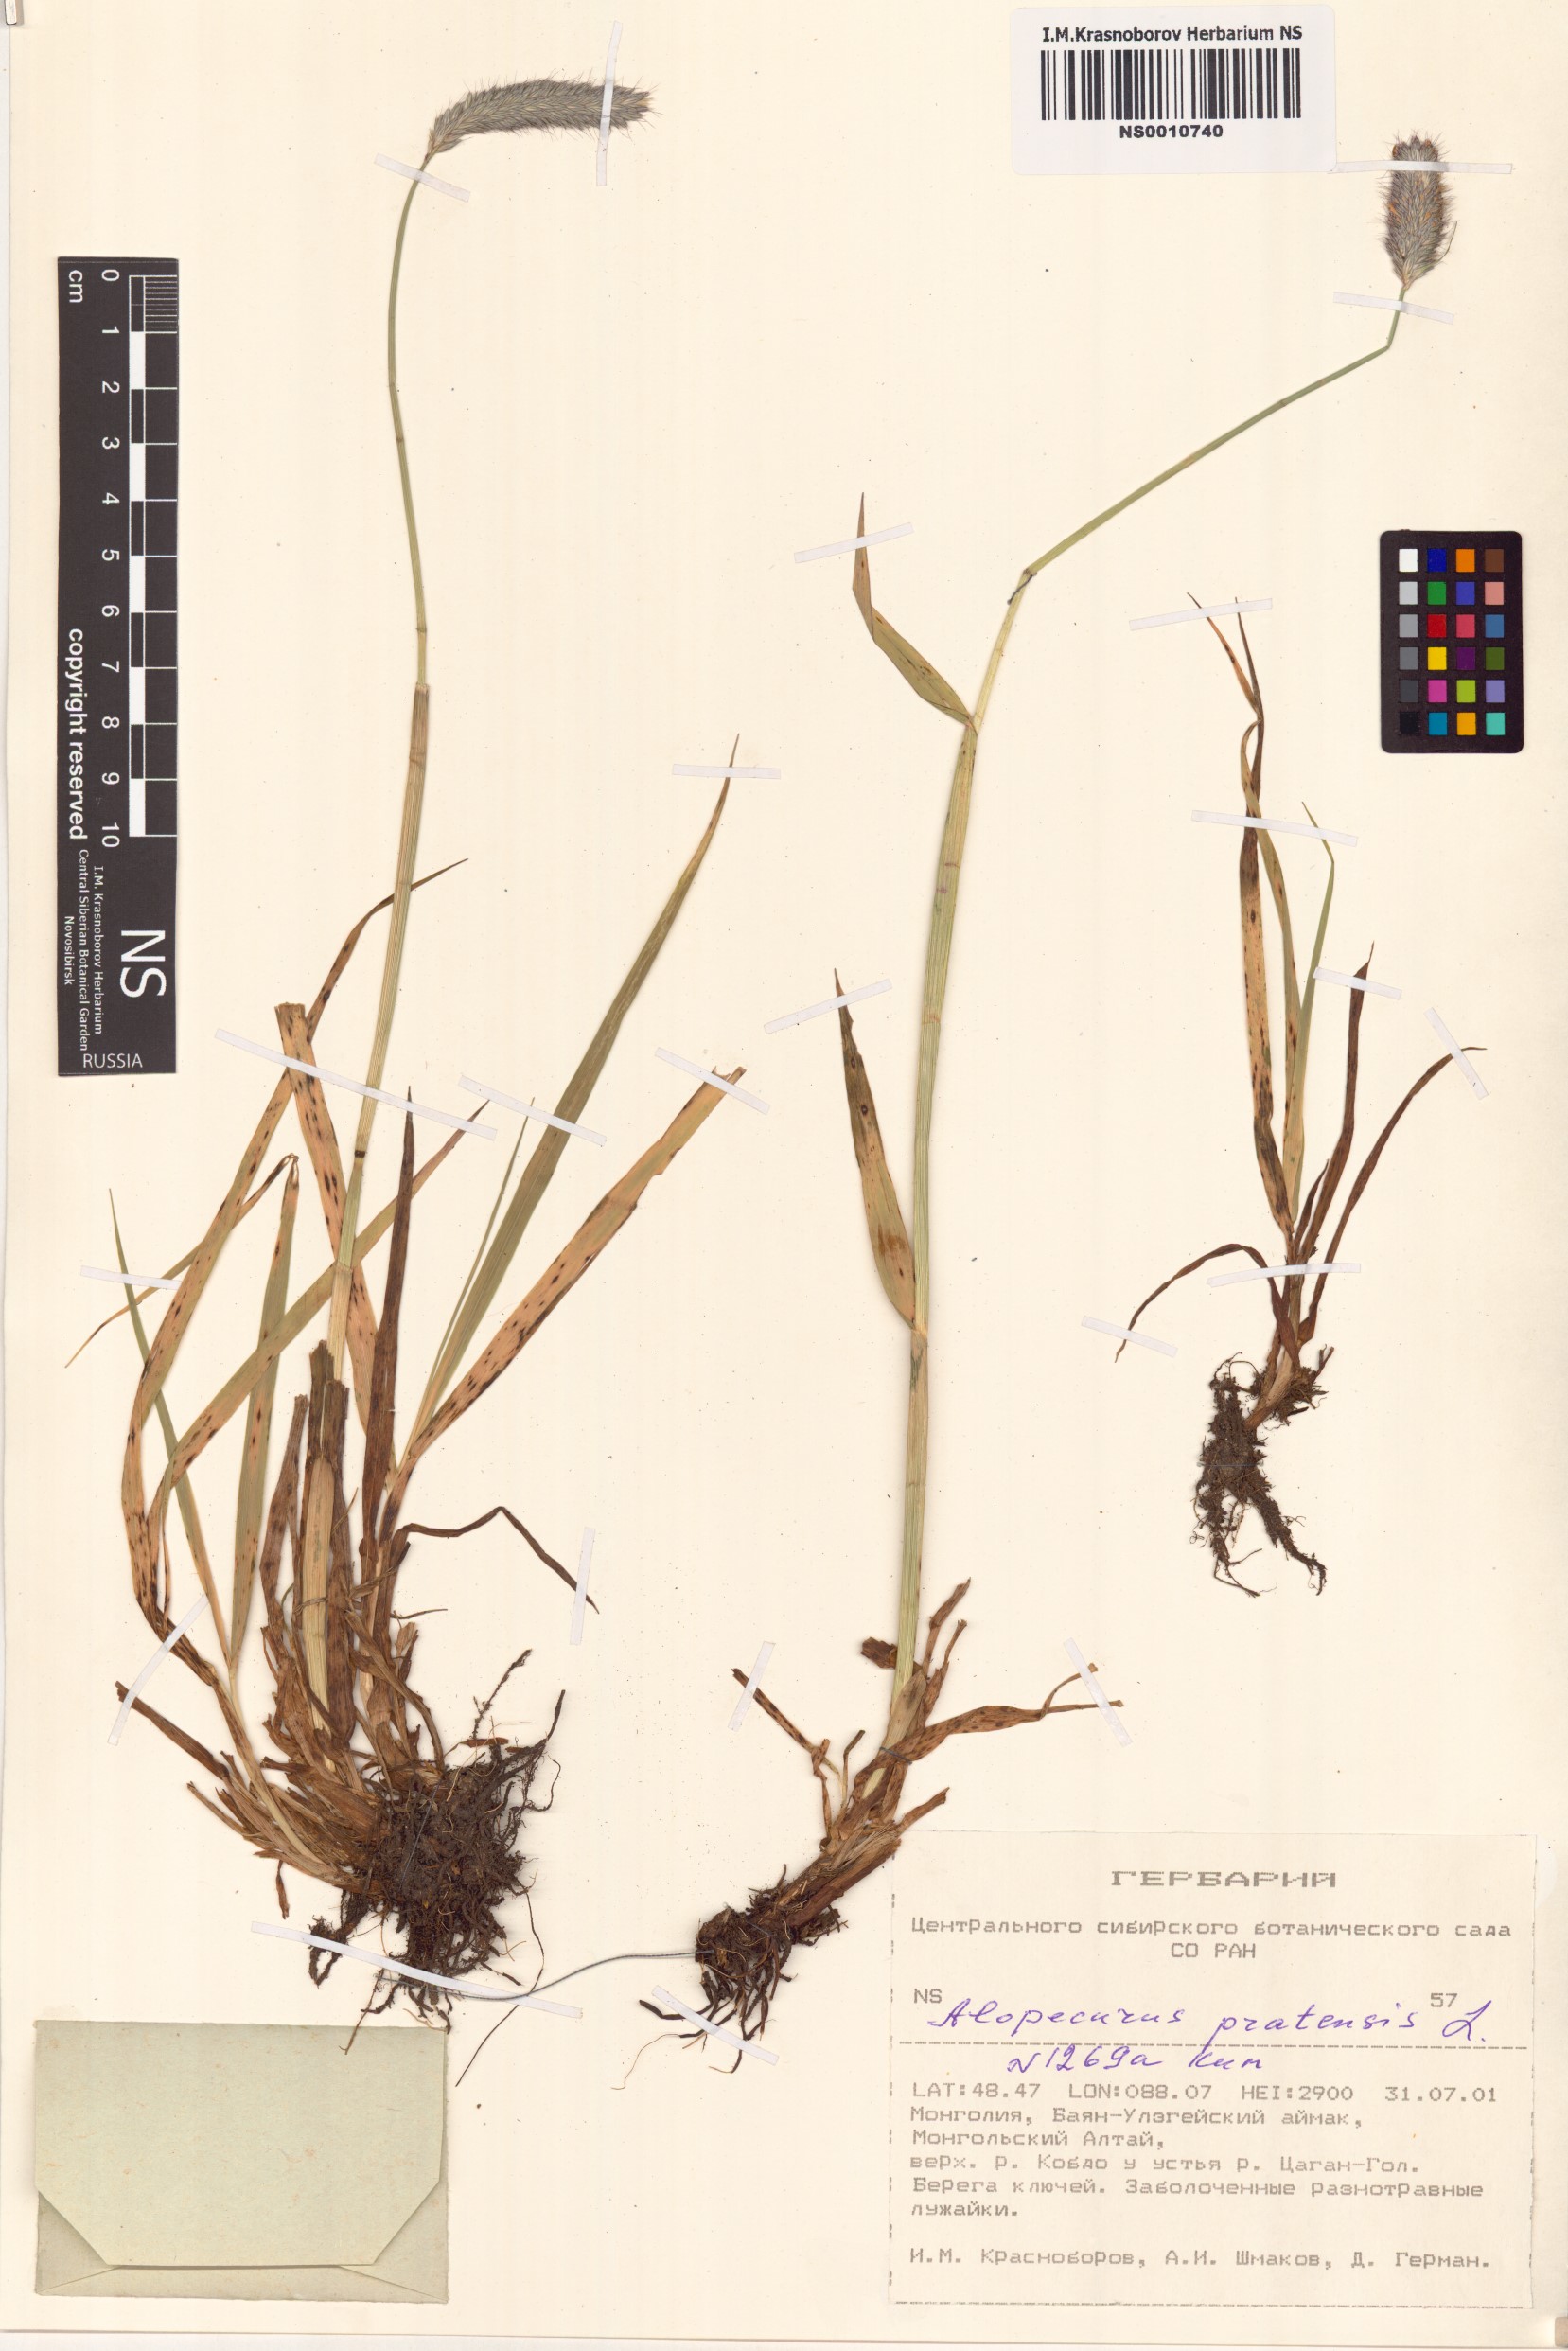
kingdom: Plantae
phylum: Tracheophyta
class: Liliopsida
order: Poales
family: Poaceae
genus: Alopecurus
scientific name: Alopecurus pratensis
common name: Meadow foxtail
